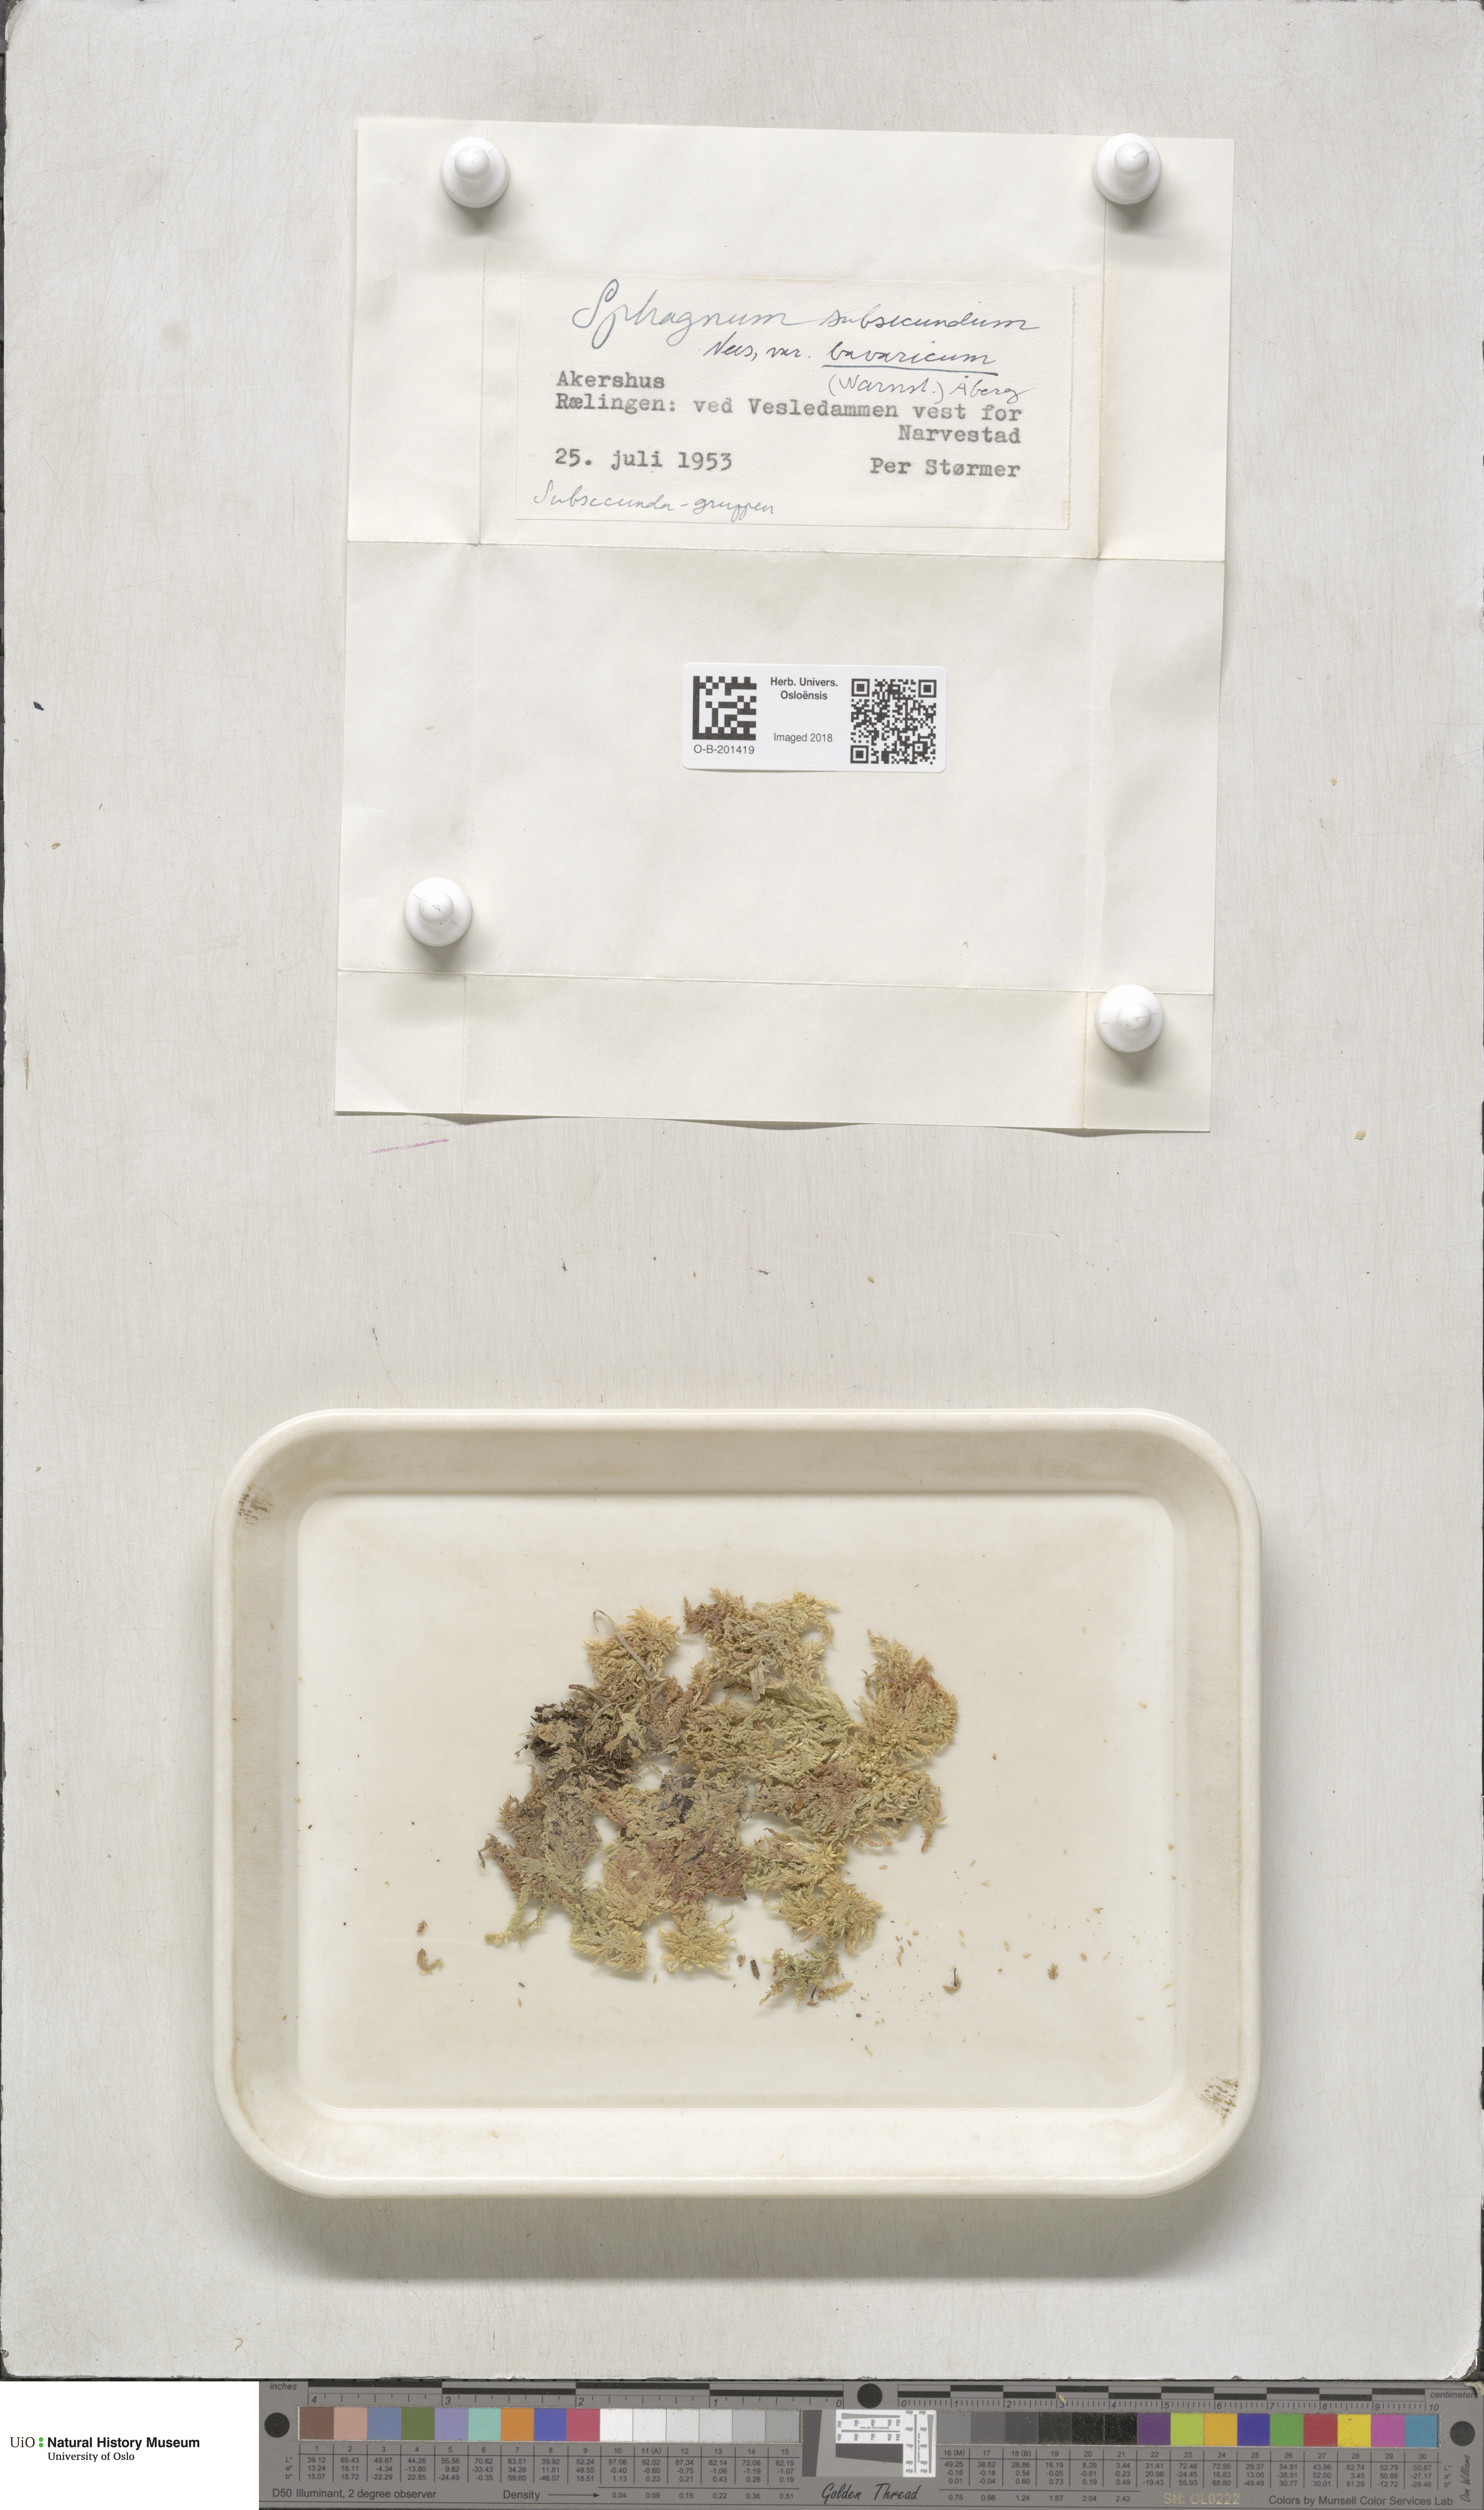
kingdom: Plantae
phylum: Bryophyta
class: Sphagnopsida
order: Sphagnales
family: Sphagnaceae
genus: Sphagnum
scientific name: Sphagnum inundatum
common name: Lesser cow-horn bog-moss
